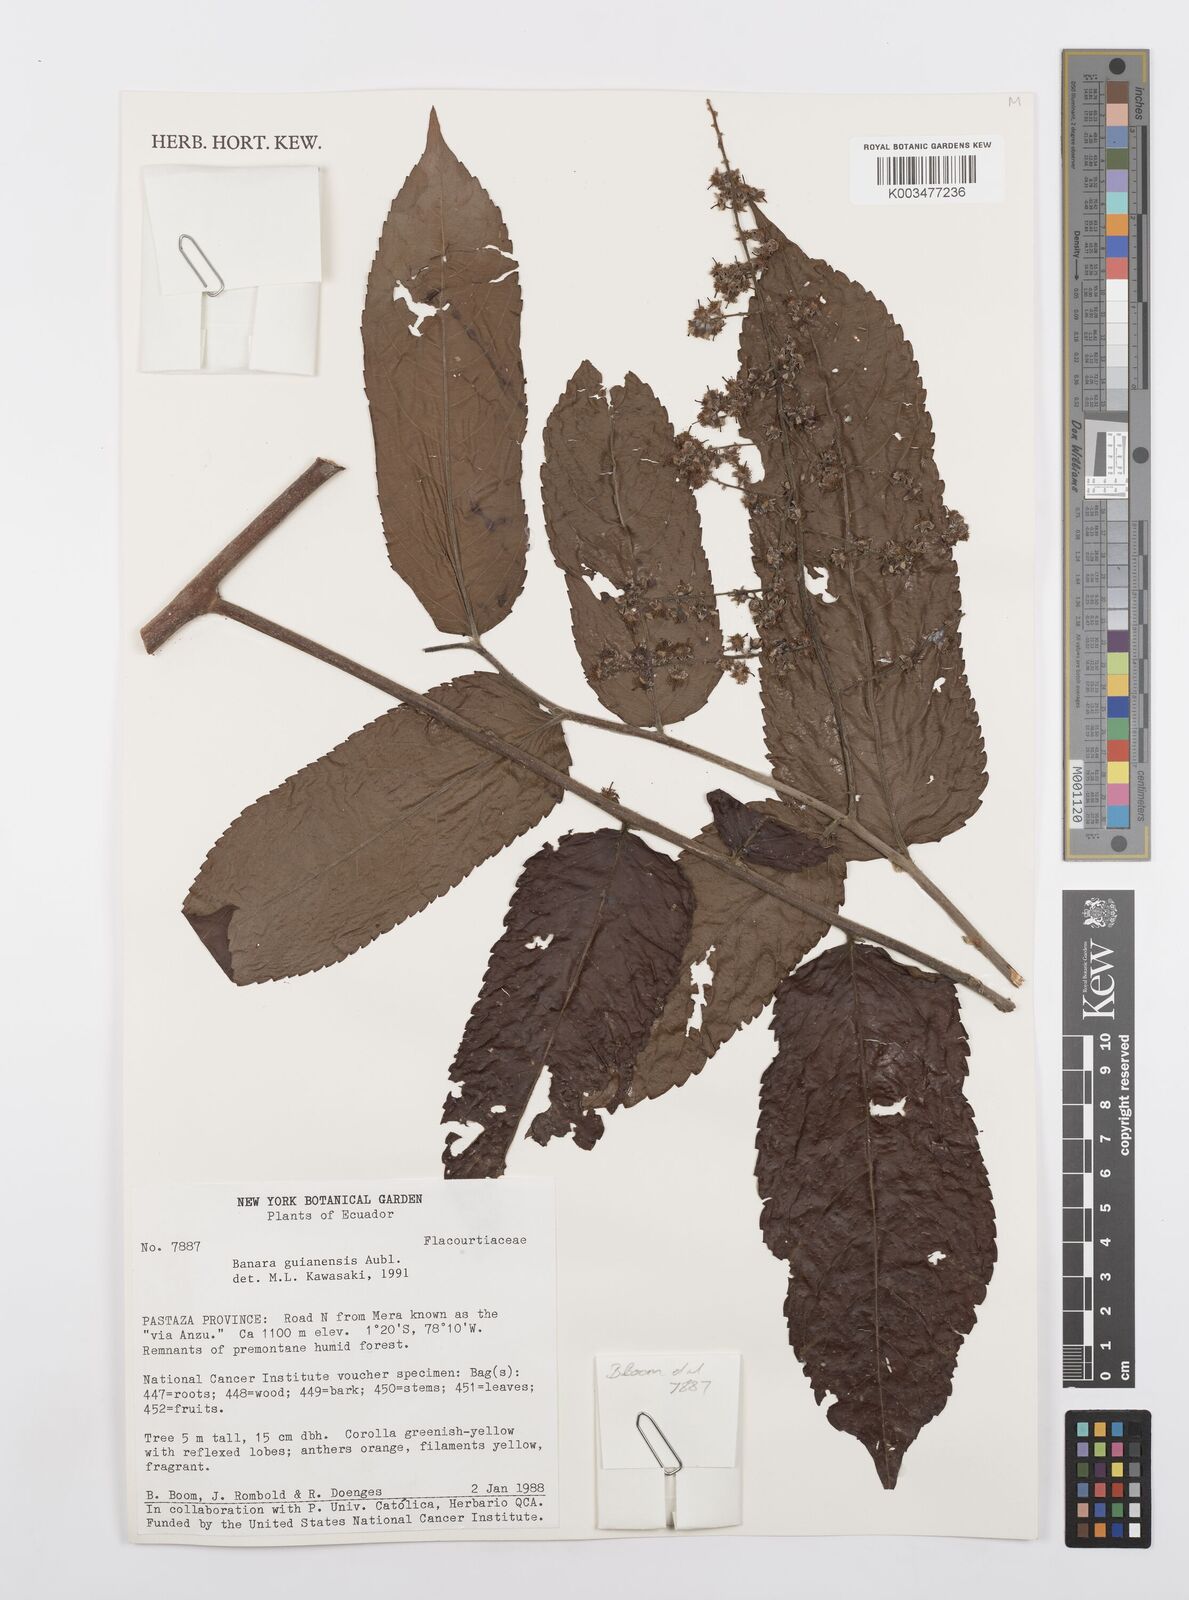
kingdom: Plantae
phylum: Tracheophyta
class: Magnoliopsida
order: Malpighiales
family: Salicaceae
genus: Banara
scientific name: Banara guianensis
